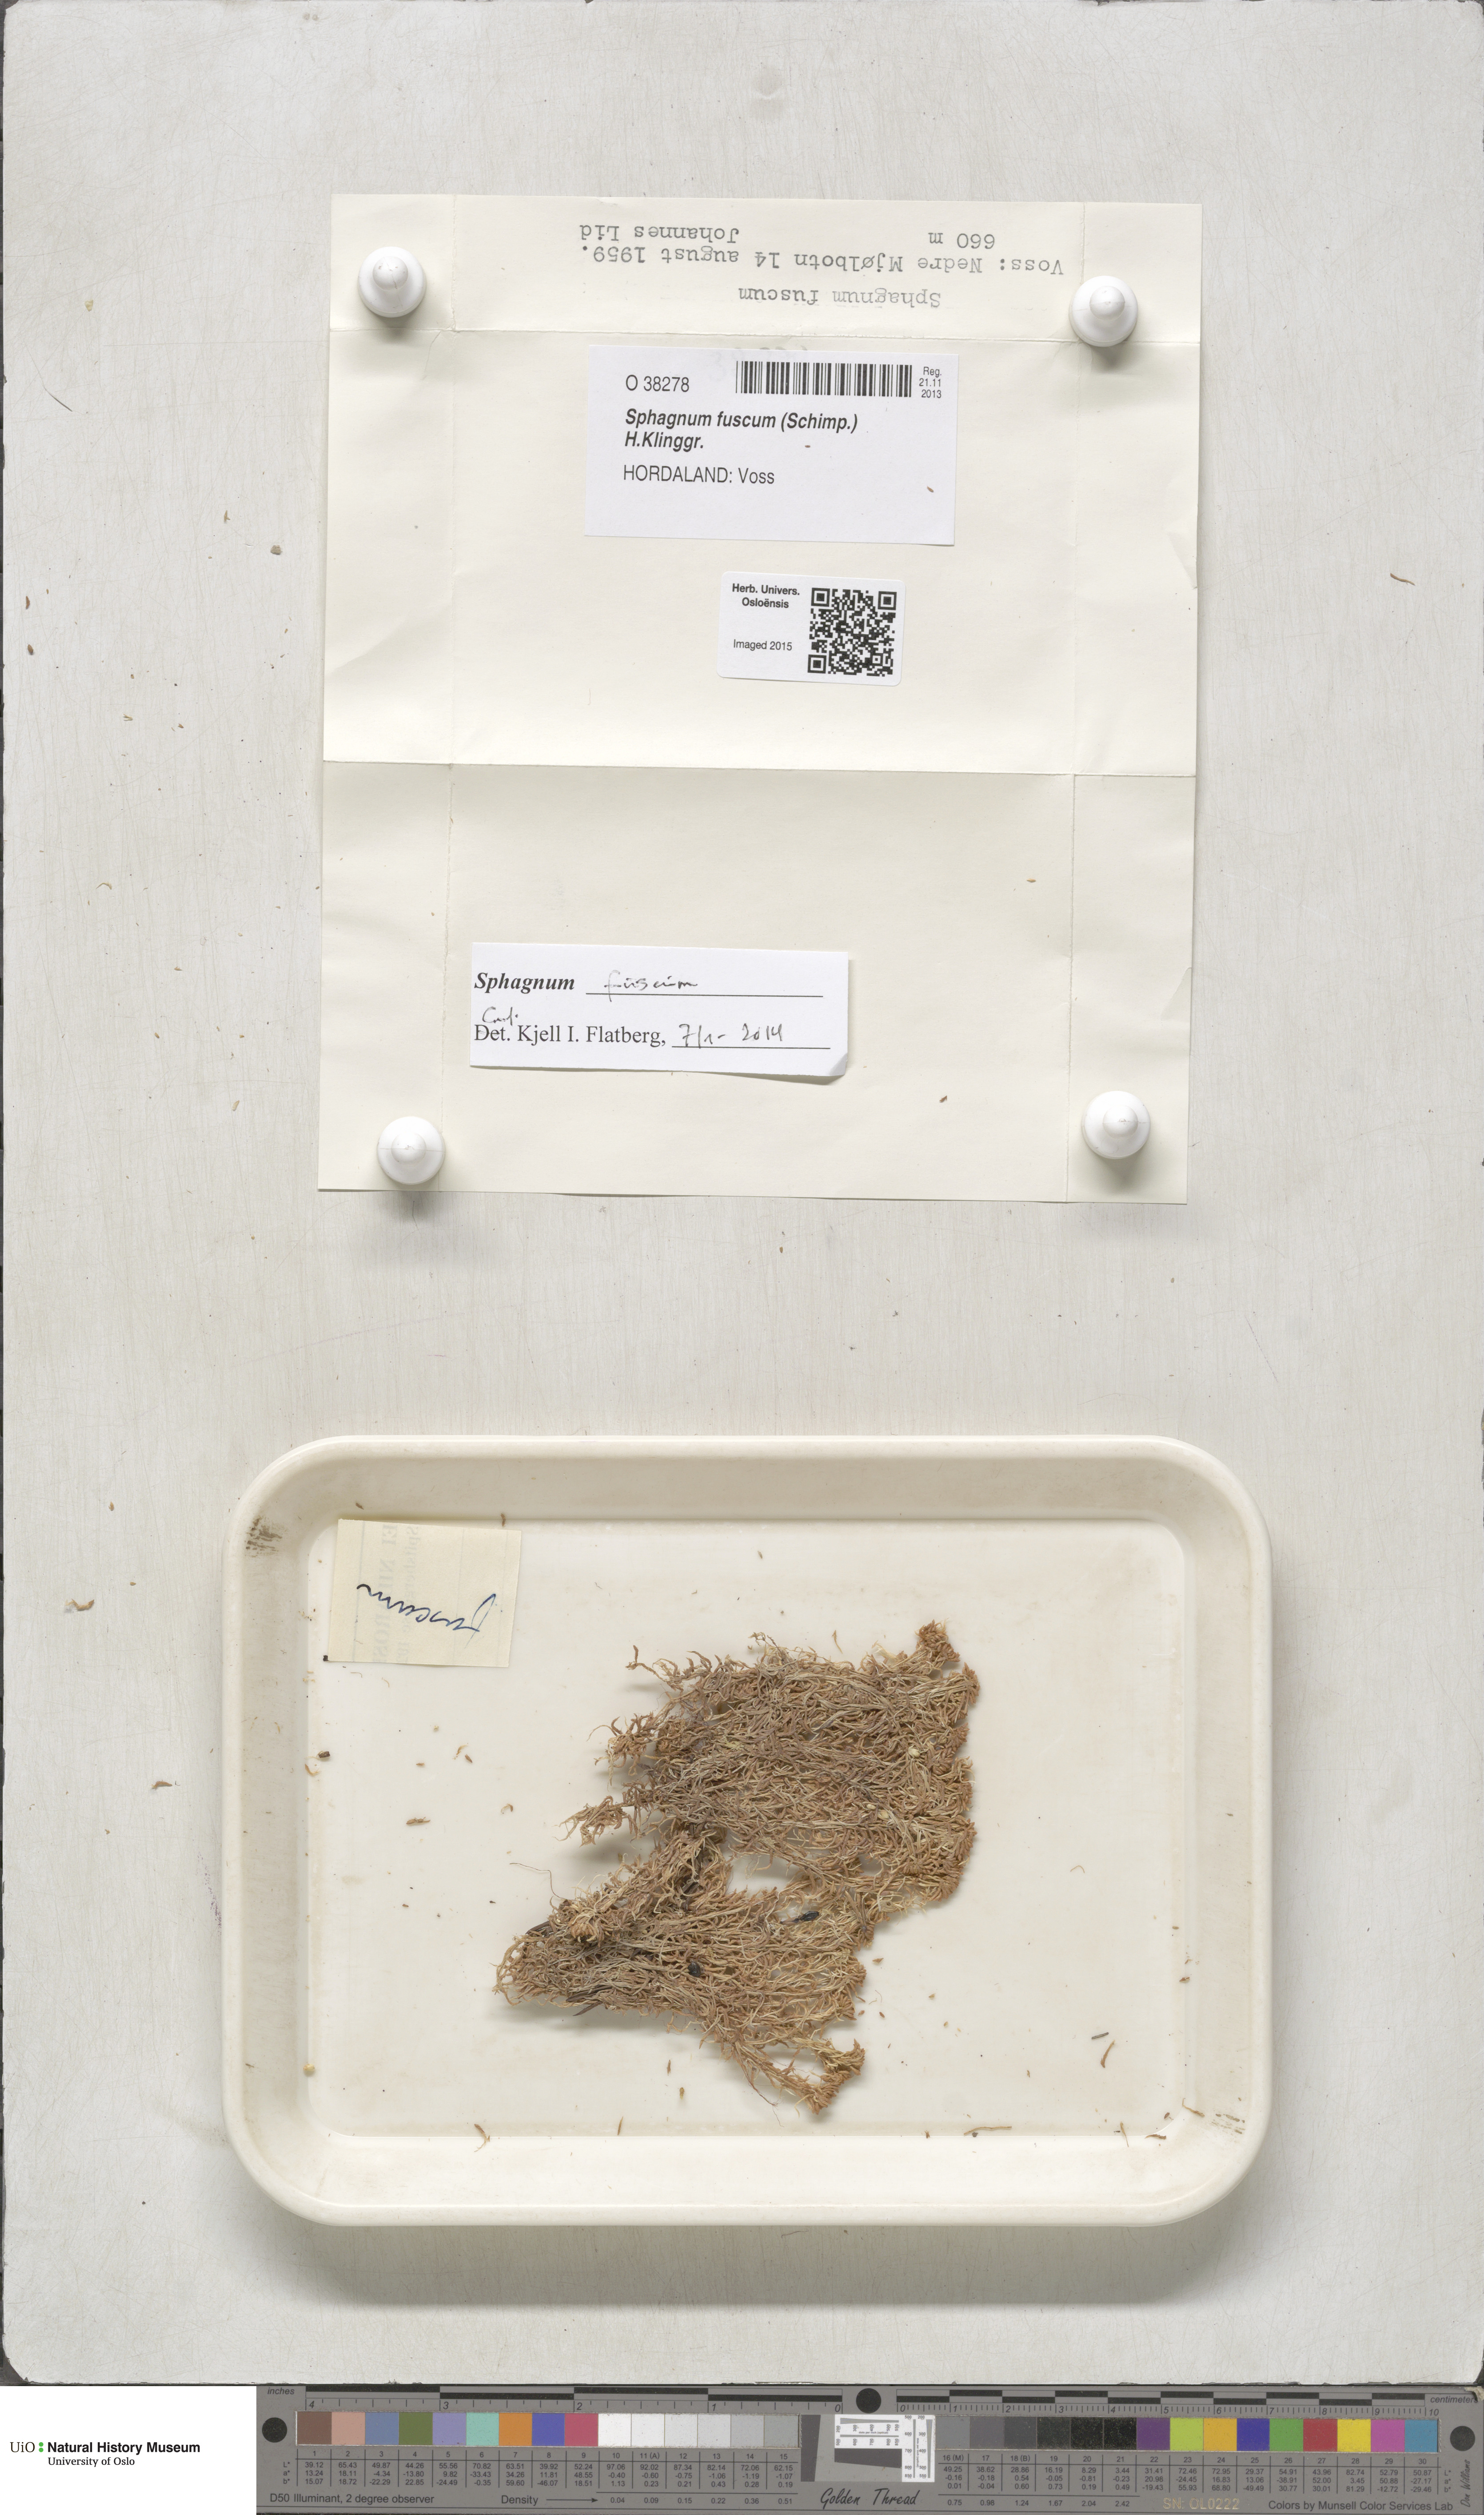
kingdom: Plantae
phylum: Bryophyta
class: Sphagnopsida
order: Sphagnales
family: Sphagnaceae
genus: Sphagnum
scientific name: Sphagnum fuscum
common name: Brown peat moss
